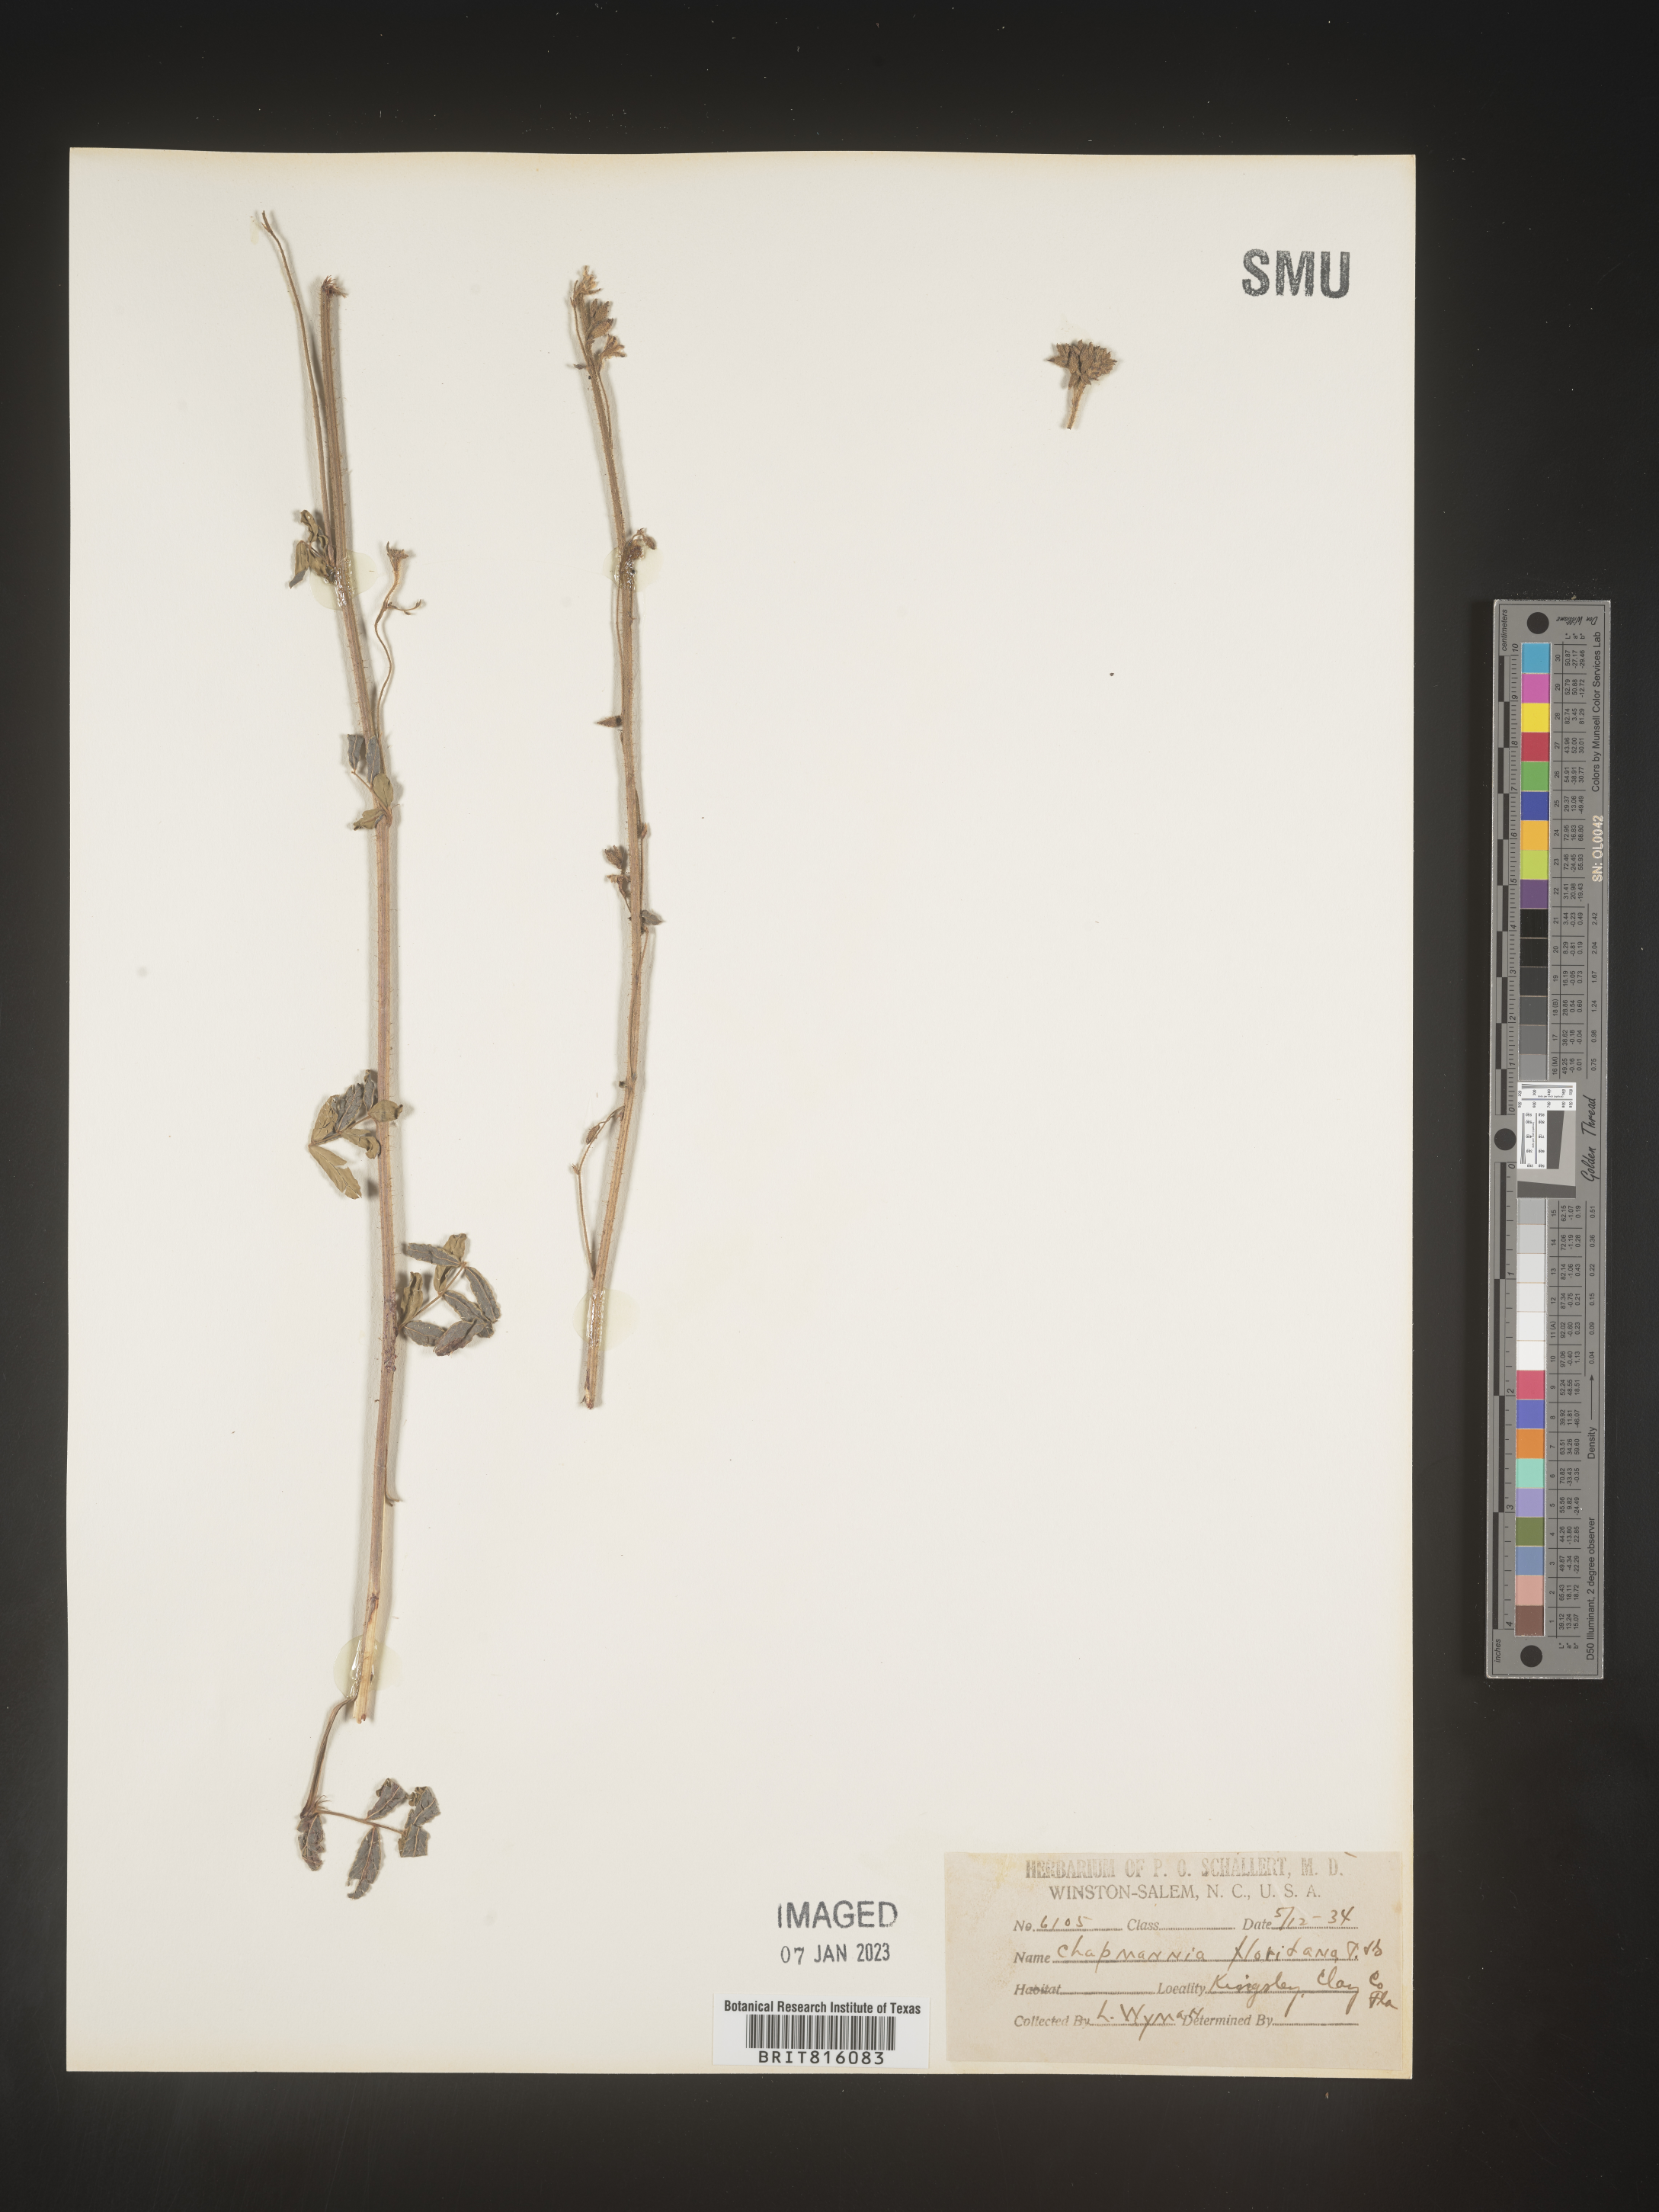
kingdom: Plantae
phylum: Tracheophyta
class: Magnoliopsida
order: Fabales
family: Fabaceae
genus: Chapmannia
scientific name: Chapmannia
